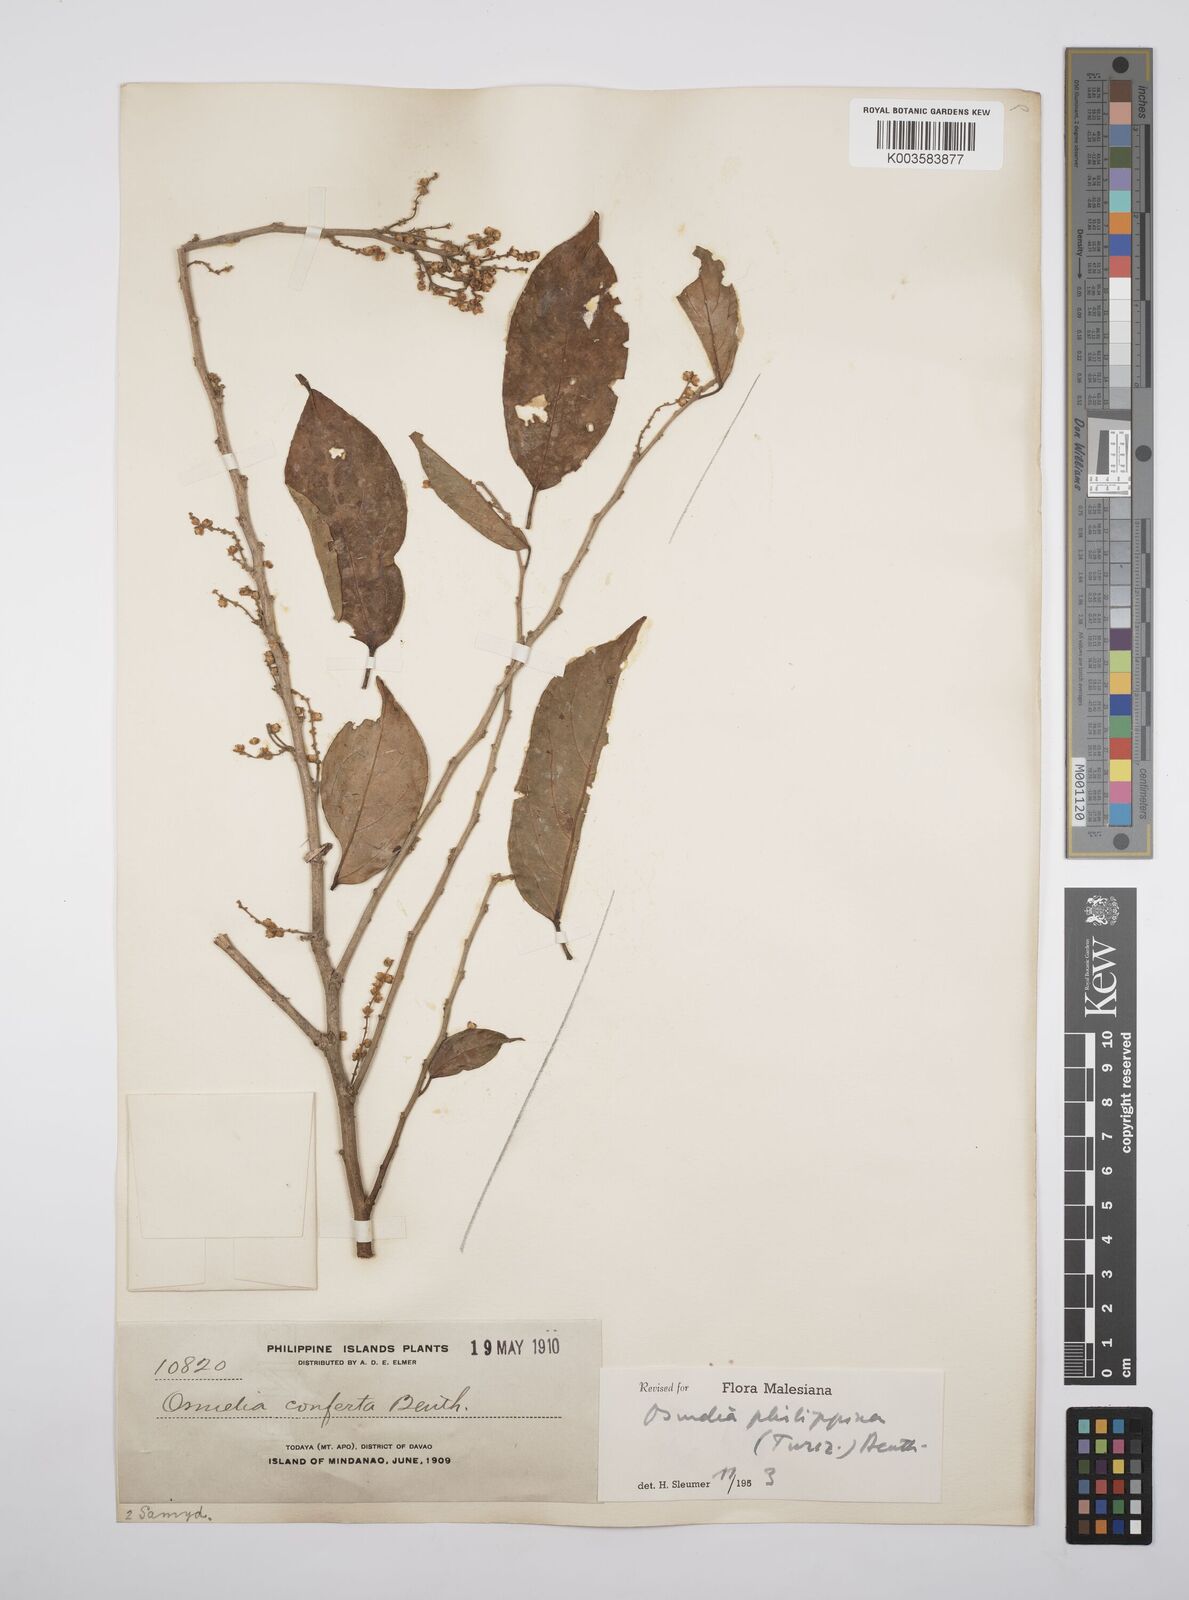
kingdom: Plantae
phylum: Tracheophyta
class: Magnoliopsida
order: Malpighiales
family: Salicaceae
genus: Osmelia
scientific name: Osmelia philippina
